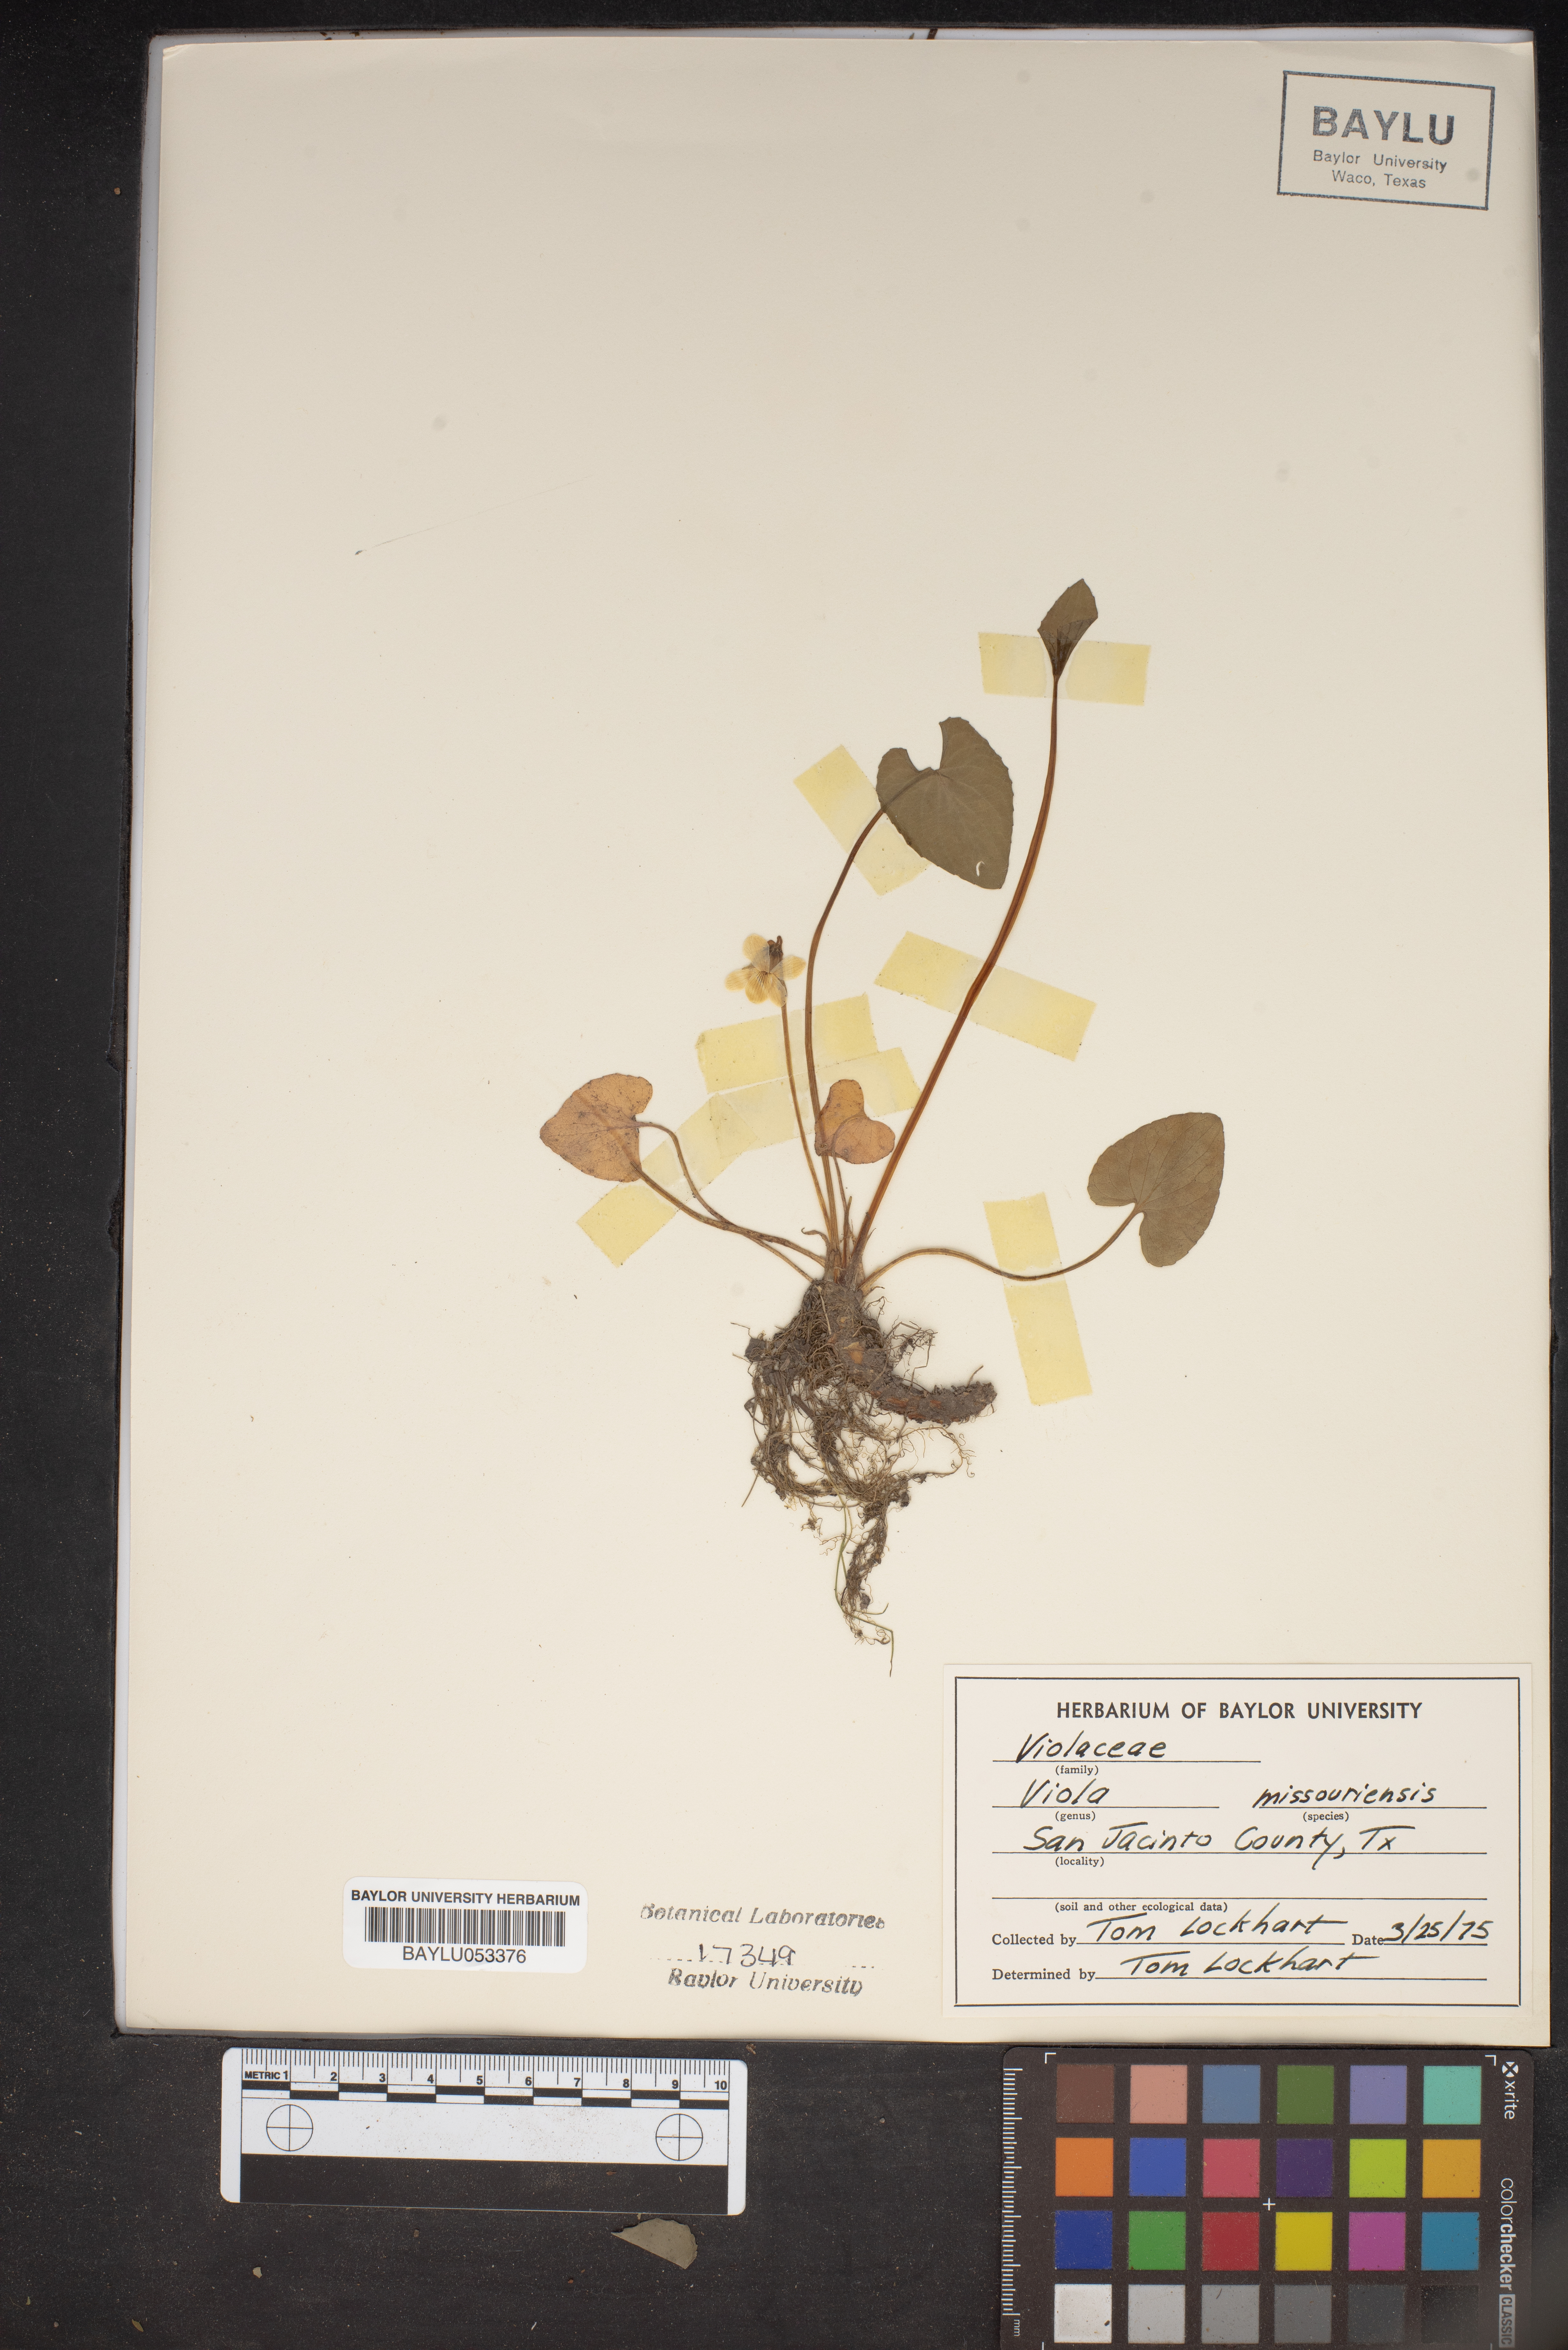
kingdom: Plantae
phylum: Tracheophyta
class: Magnoliopsida
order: Malpighiales
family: Violaceae
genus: Viola
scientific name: Viola missouriensis
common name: Missouri violet
